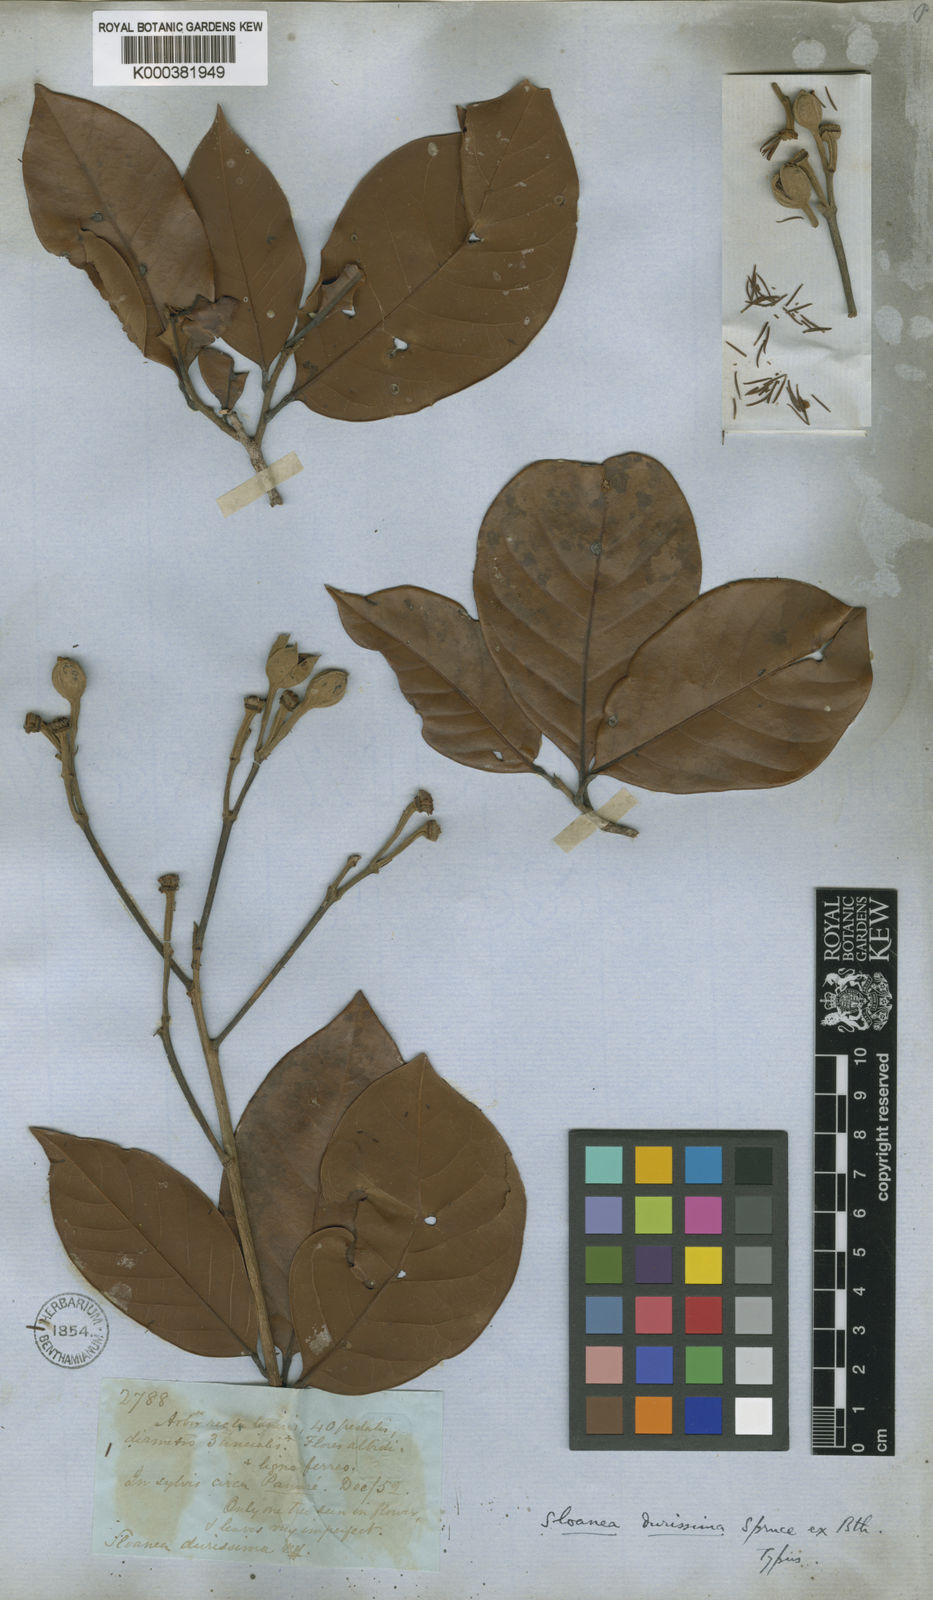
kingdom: Plantae
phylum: Tracheophyta
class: Magnoliopsida
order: Oxalidales
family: Elaeocarpaceae
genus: Sloanea
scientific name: Sloanea durissima
